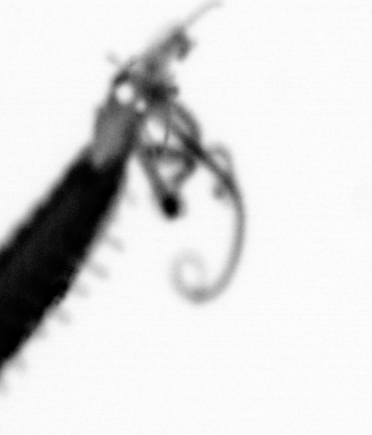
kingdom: Animalia
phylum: Arthropoda
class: Copepoda
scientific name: Copepoda
